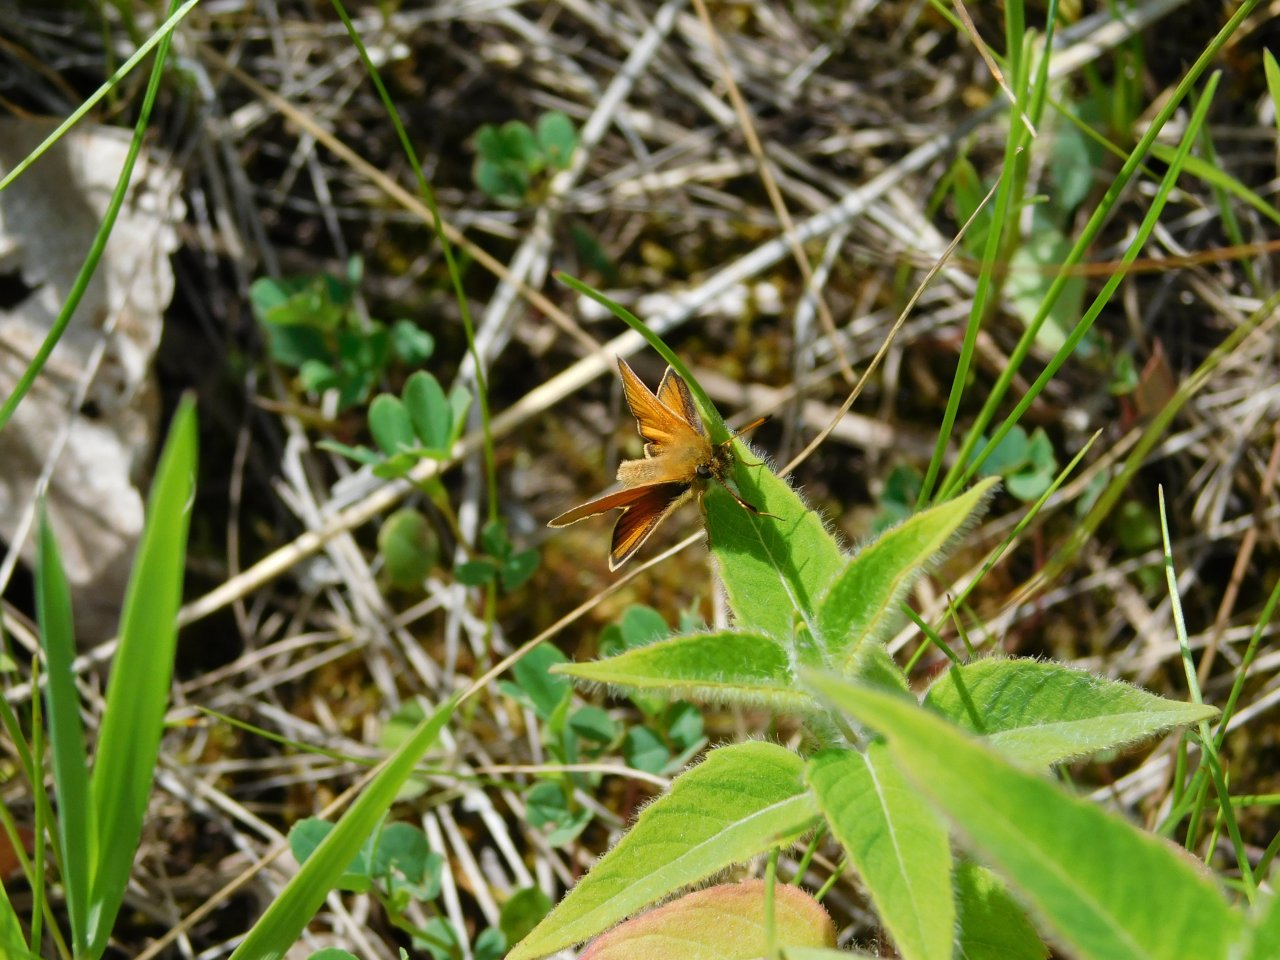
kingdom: Animalia
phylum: Arthropoda
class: Insecta
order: Lepidoptera
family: Hesperiidae
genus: Thymelicus
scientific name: Thymelicus lineola
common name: European Skipper
